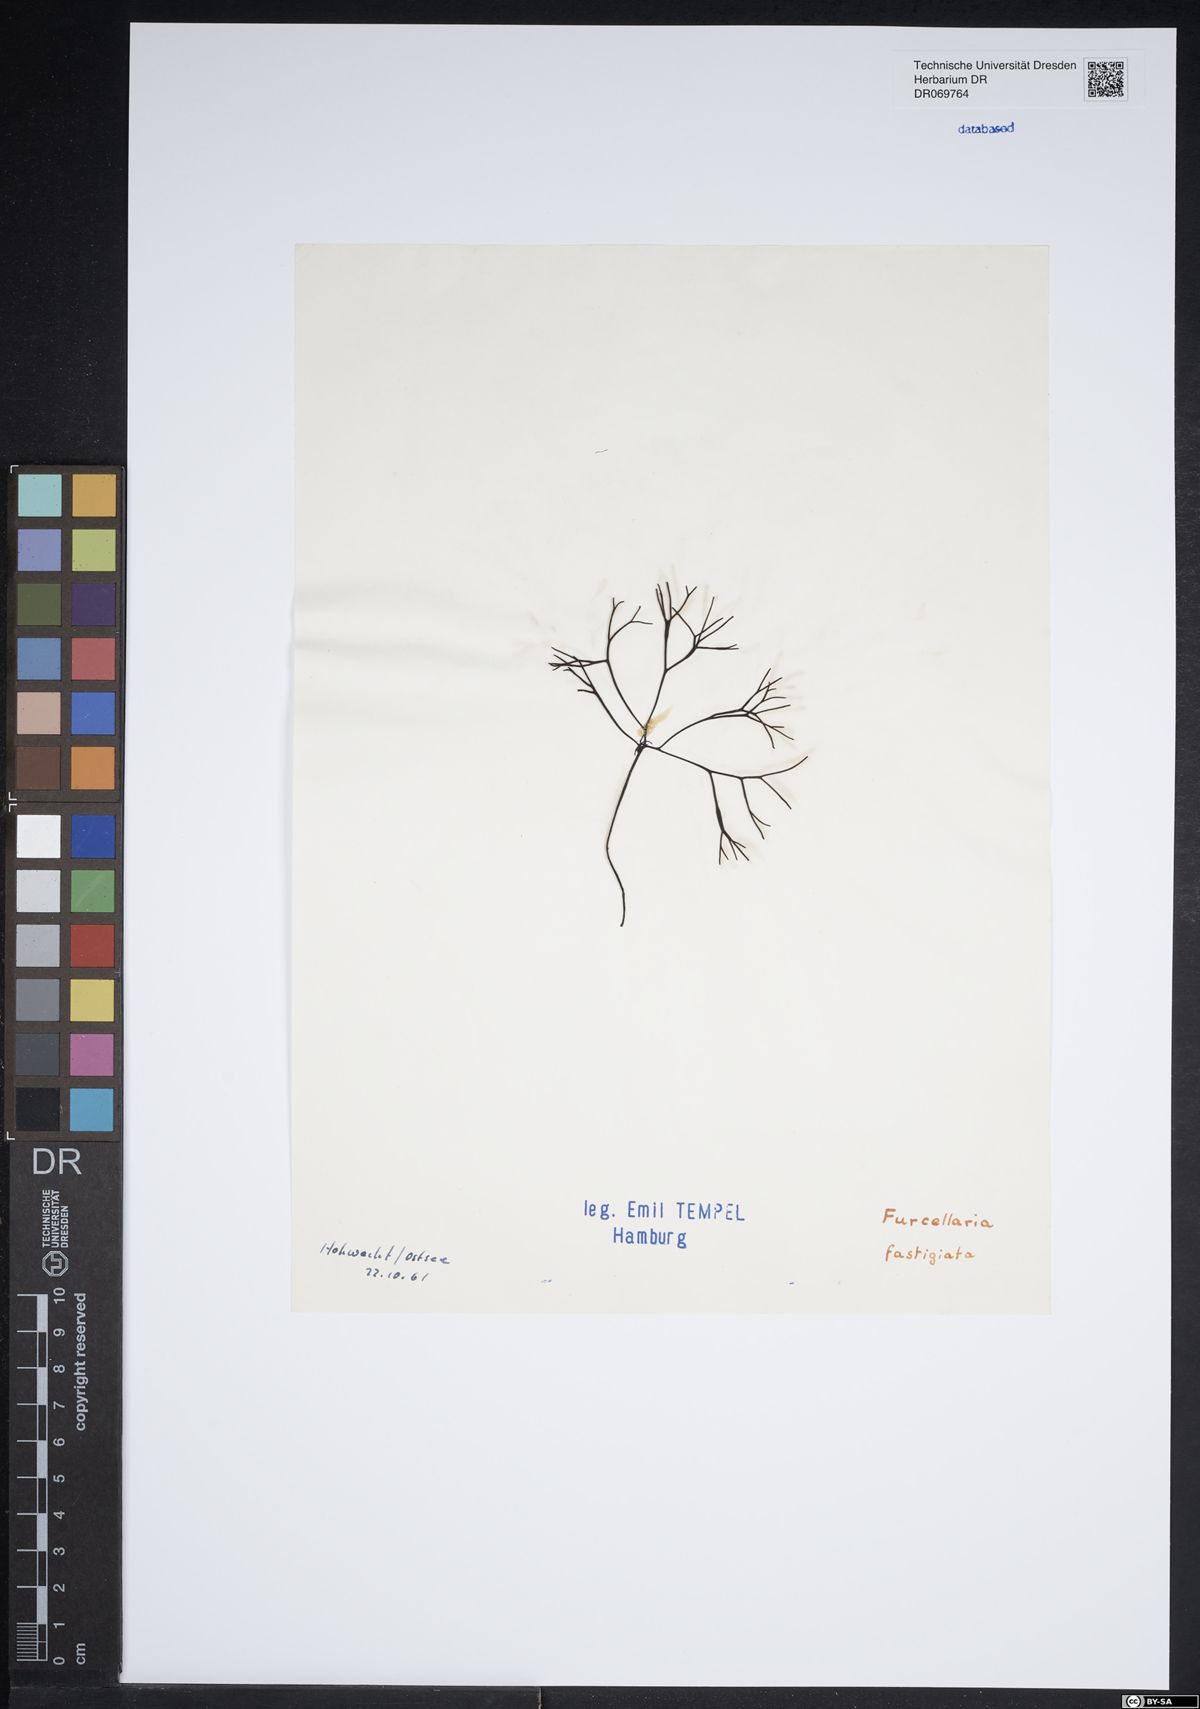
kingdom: Plantae
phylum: Rhodophyta
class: Florideophyceae
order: Gigartinales
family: Furcellariaceae
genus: Furcellaria
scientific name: Furcellaria lumbricalis
